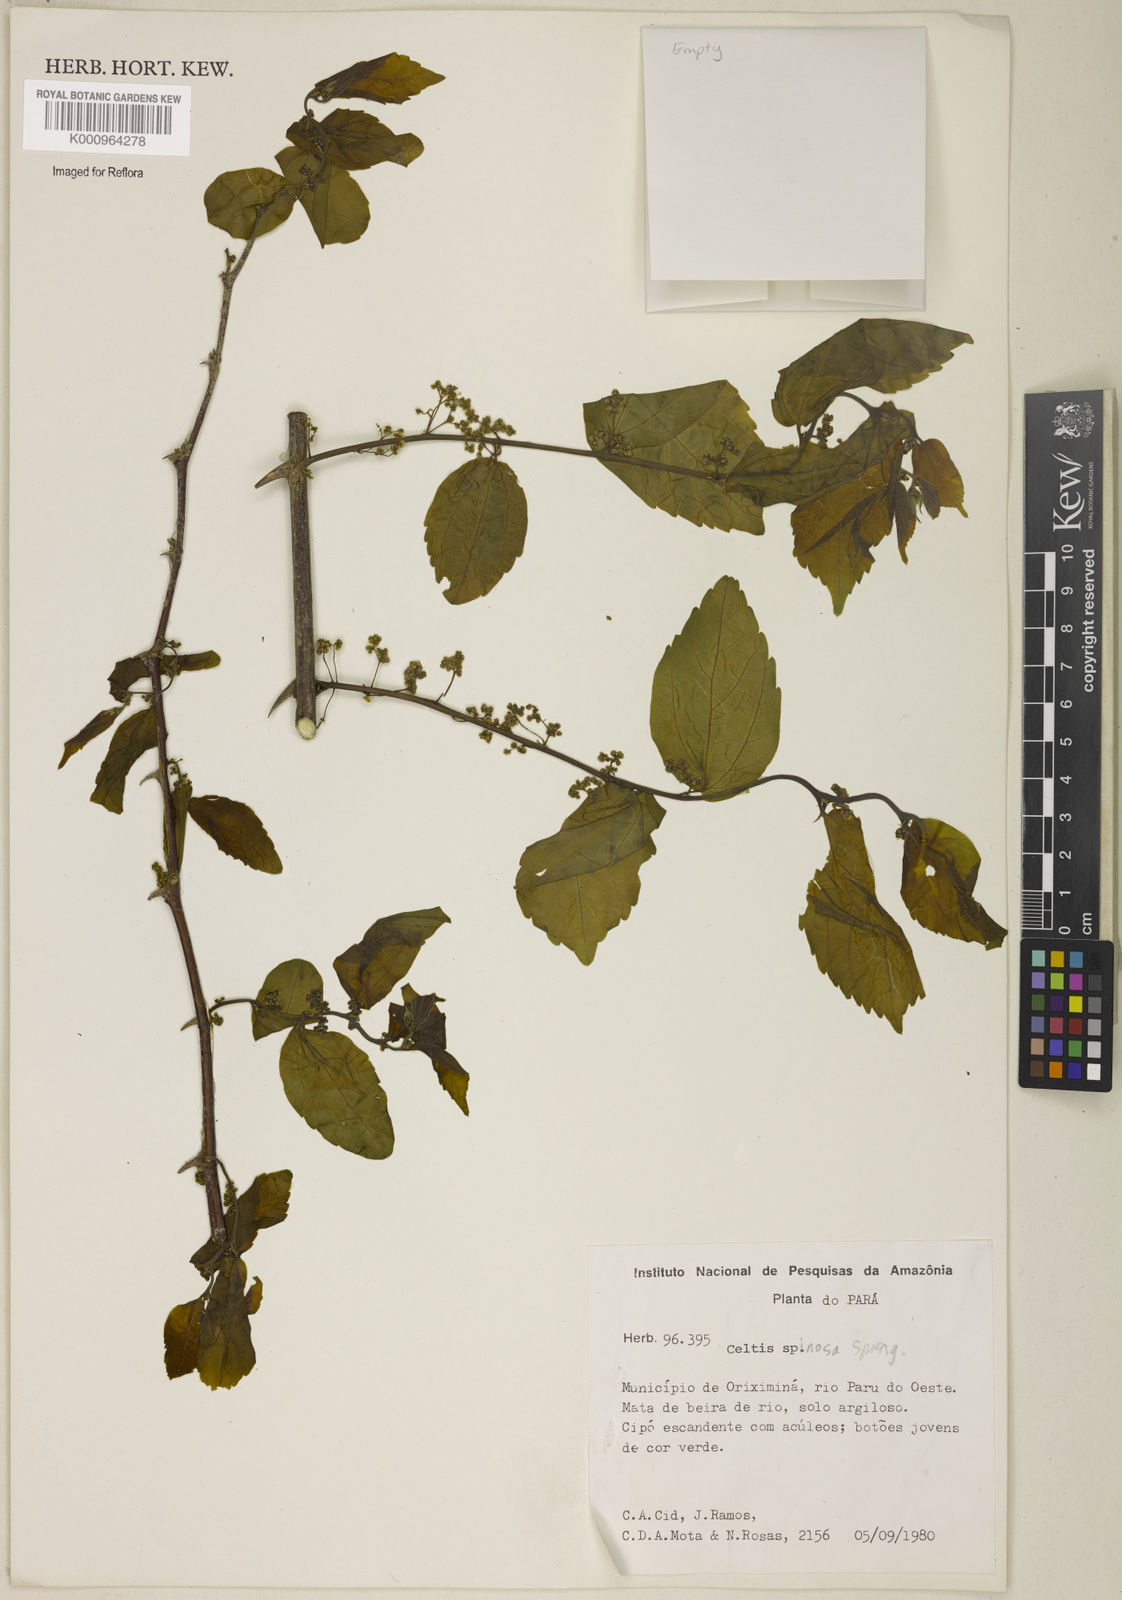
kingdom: Plantae
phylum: Tracheophyta
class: Magnoliopsida
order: Rosales
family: Cannabaceae
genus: Celtis
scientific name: Celtis spinosa
